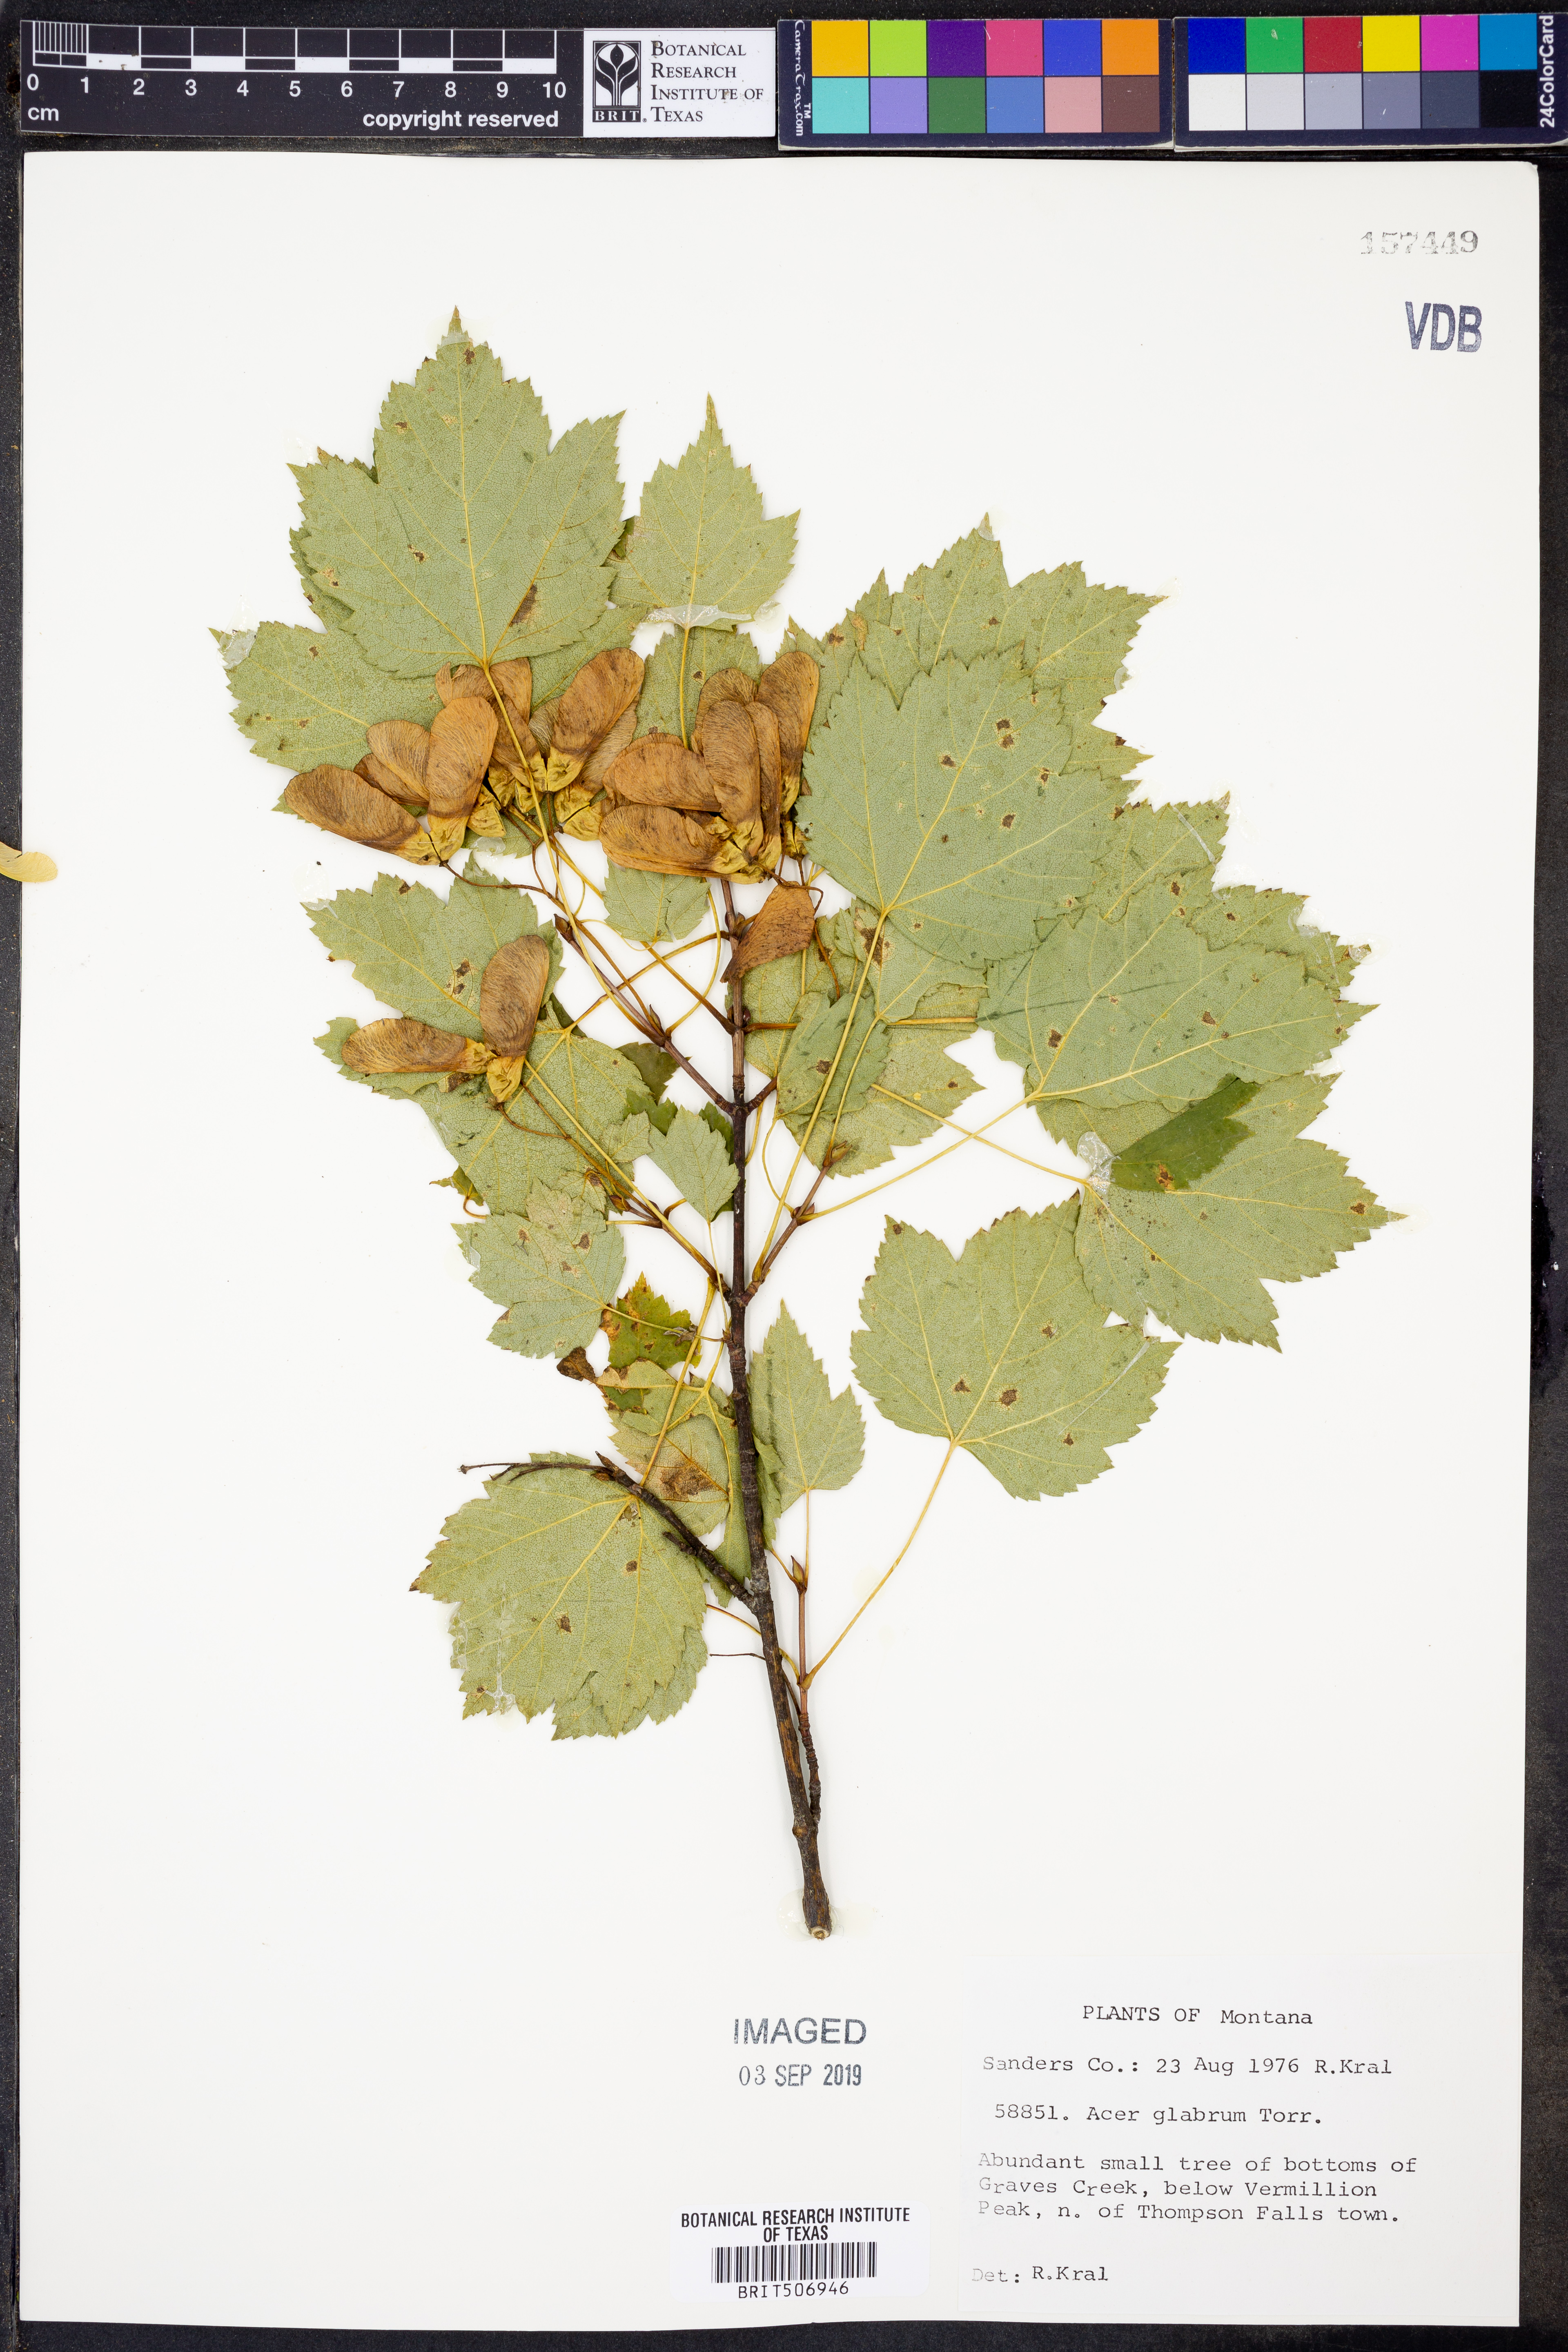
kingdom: Plantae
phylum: Tracheophyta
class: Magnoliopsida
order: Sapindales
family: Sapindaceae
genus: Acer
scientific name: Acer glabrum
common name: Rocky mountain maple
